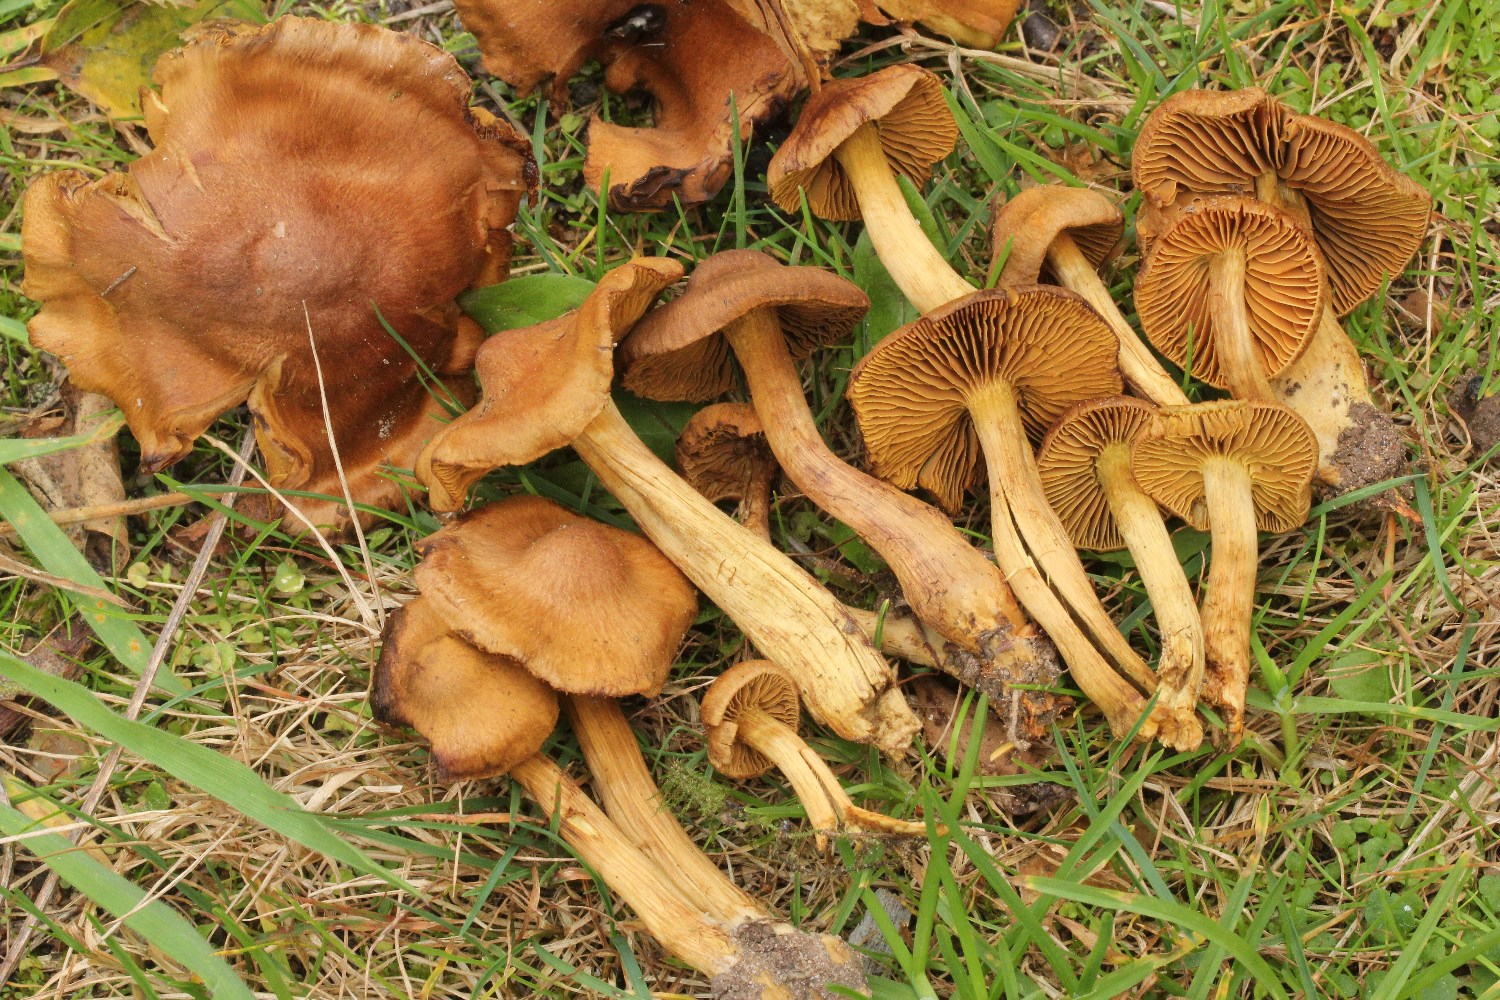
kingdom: Fungi
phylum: Basidiomycota
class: Agaricomycetes
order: Agaricales
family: Cortinariaceae
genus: Cortinarius
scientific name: Cortinarius
